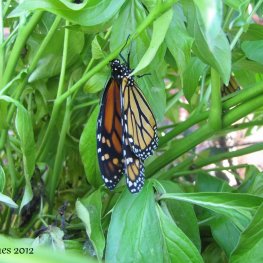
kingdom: Animalia
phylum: Arthropoda
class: Insecta
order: Lepidoptera
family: Nymphalidae
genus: Danaus
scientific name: Danaus plexippus
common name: Monarch
